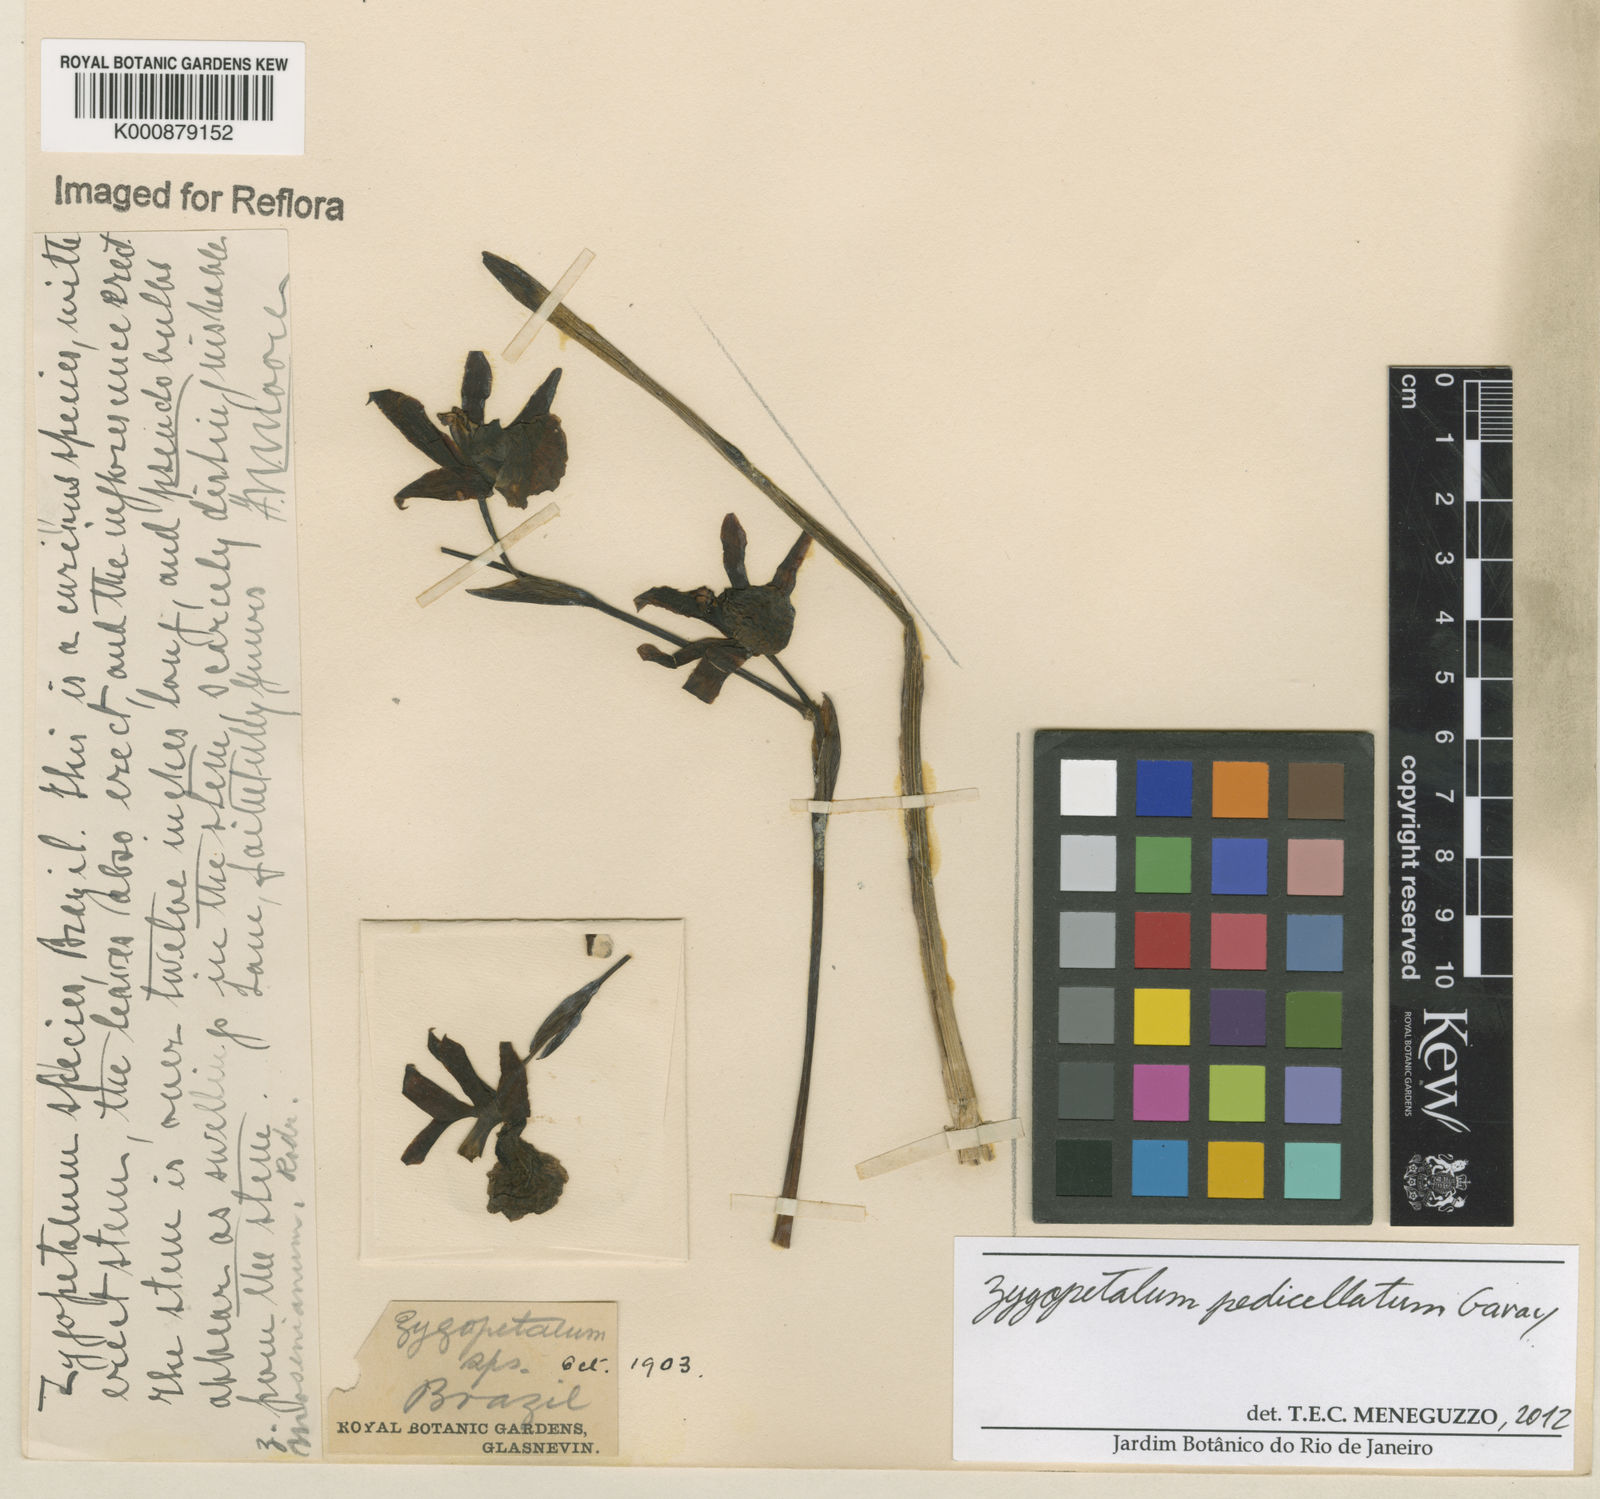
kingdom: Plantae
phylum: Tracheophyta
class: Liliopsida
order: Asparagales
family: Orchidaceae
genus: Zygopetalum
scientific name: Zygopetalum mosenianum
